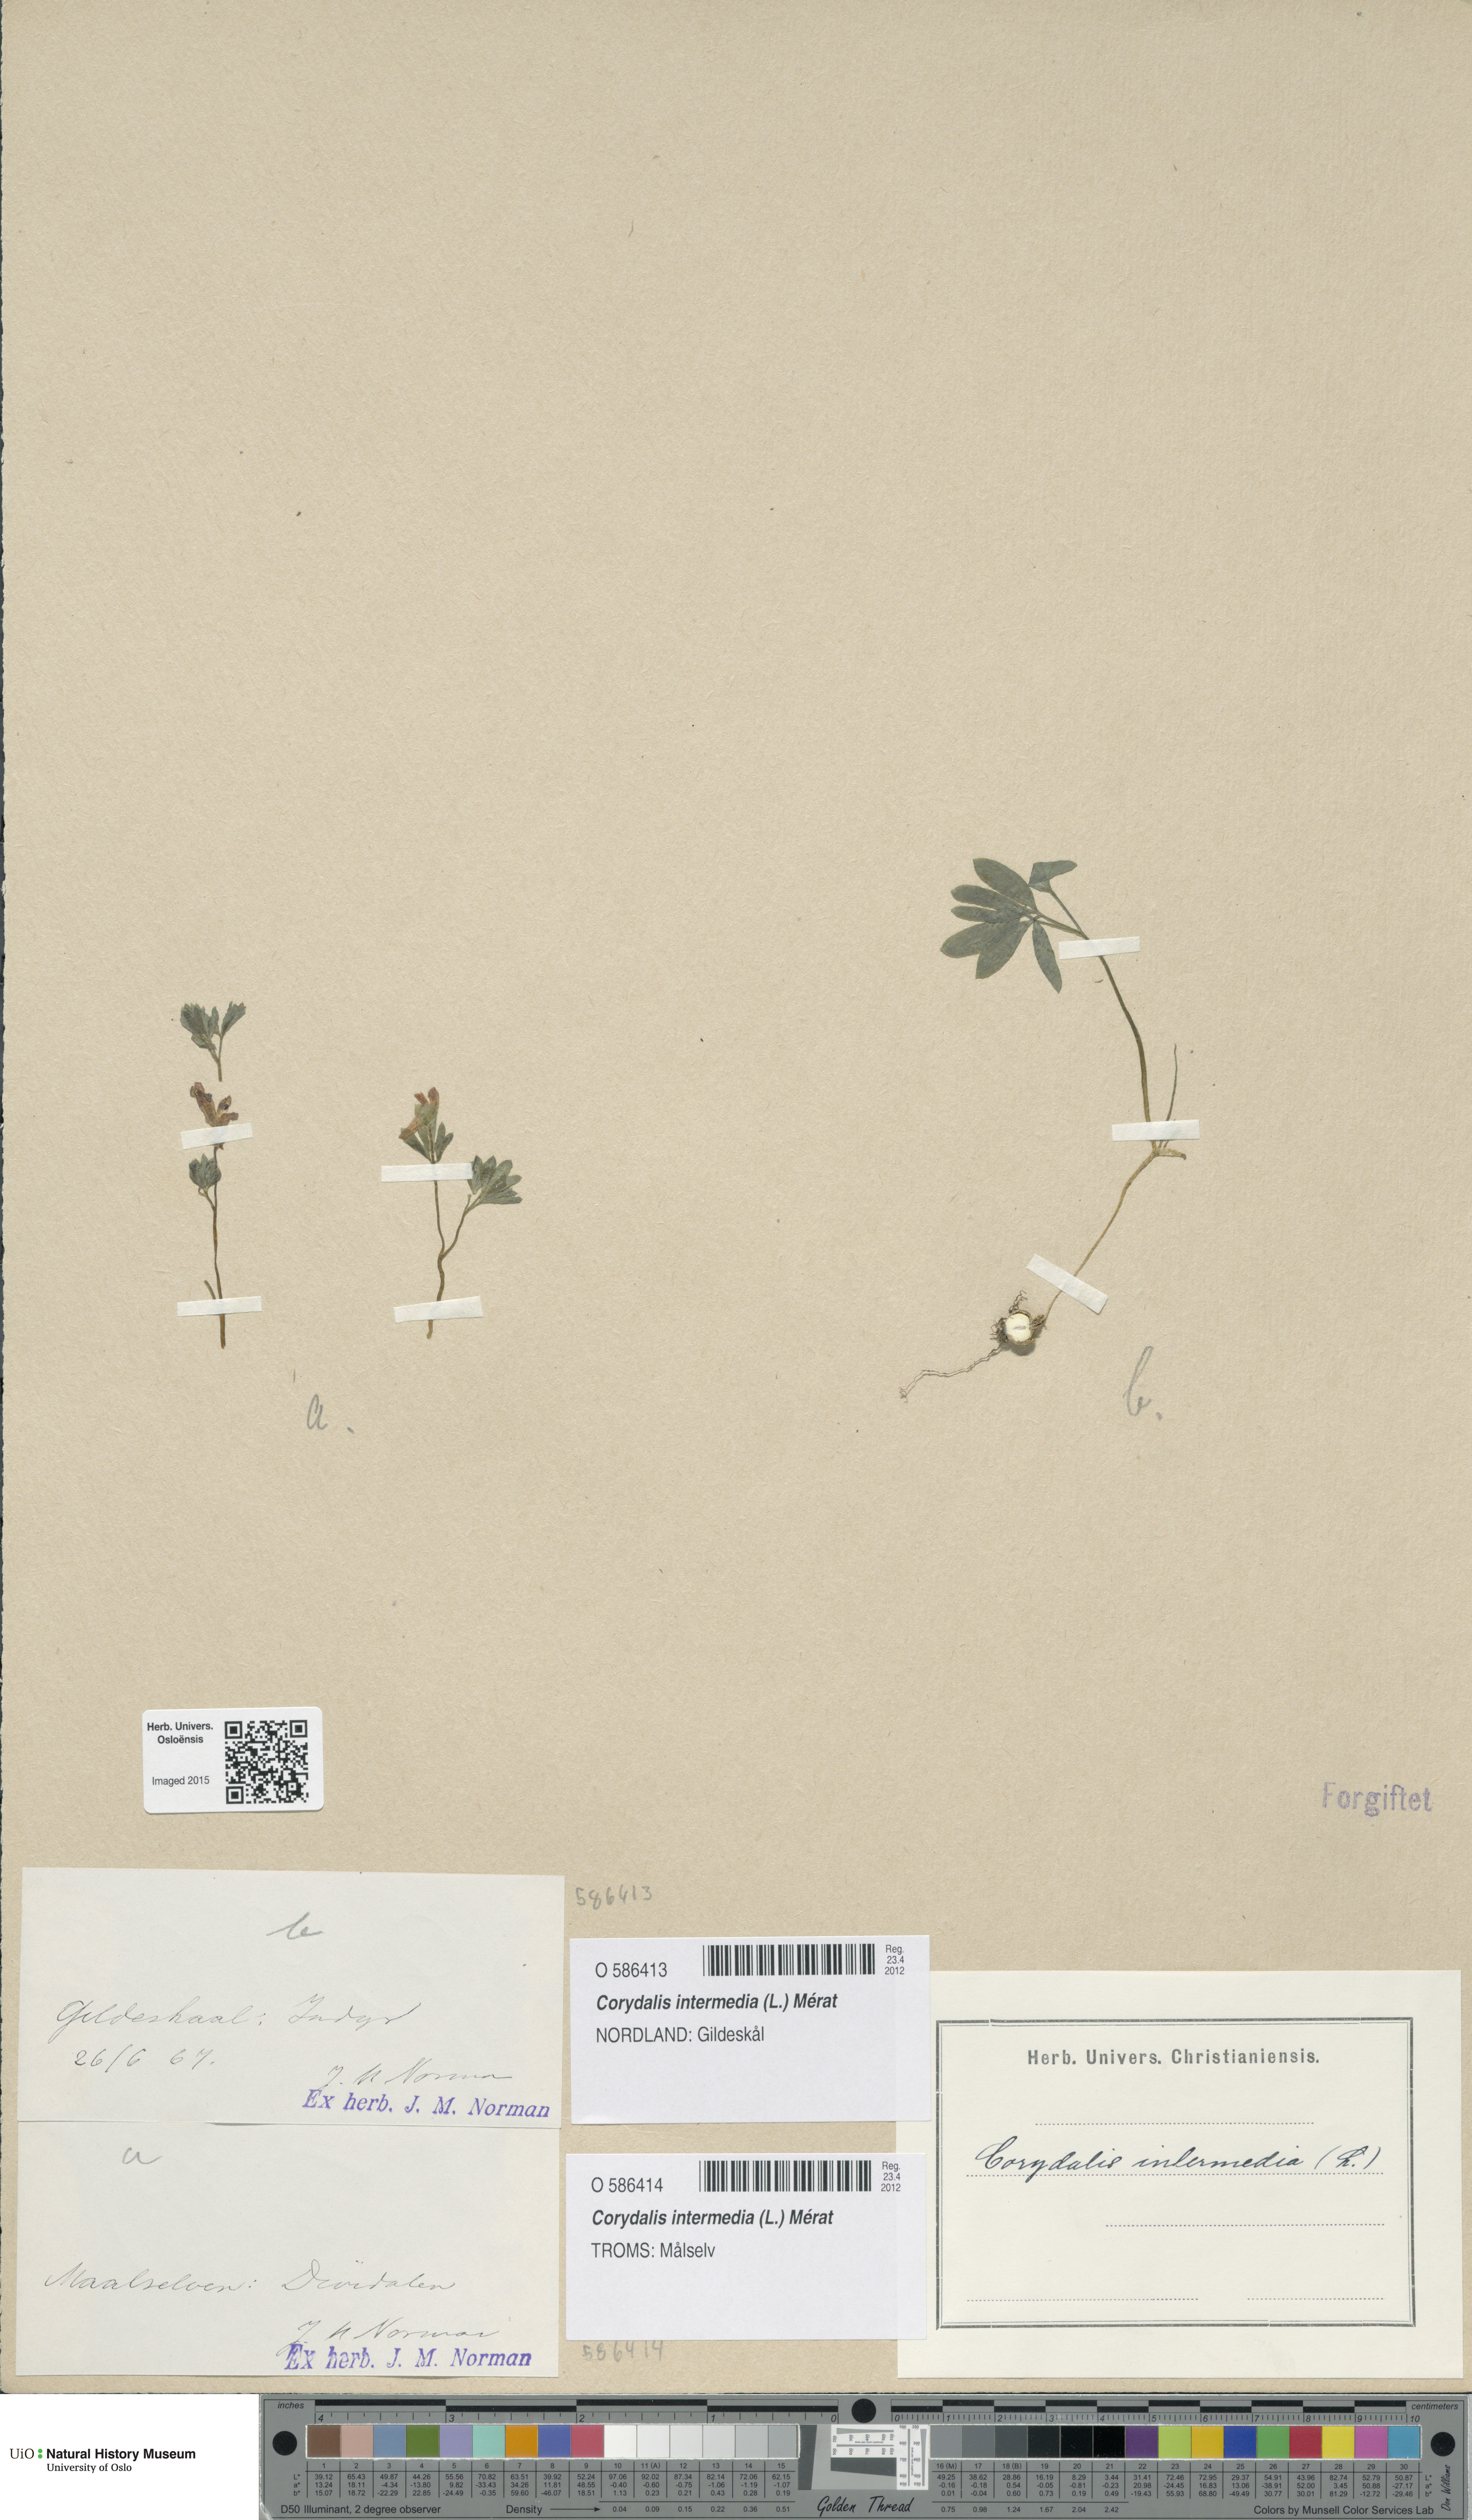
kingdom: Plantae
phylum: Tracheophyta
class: Magnoliopsida
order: Ranunculales
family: Papaveraceae
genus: Corydalis
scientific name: Corydalis intermedia
